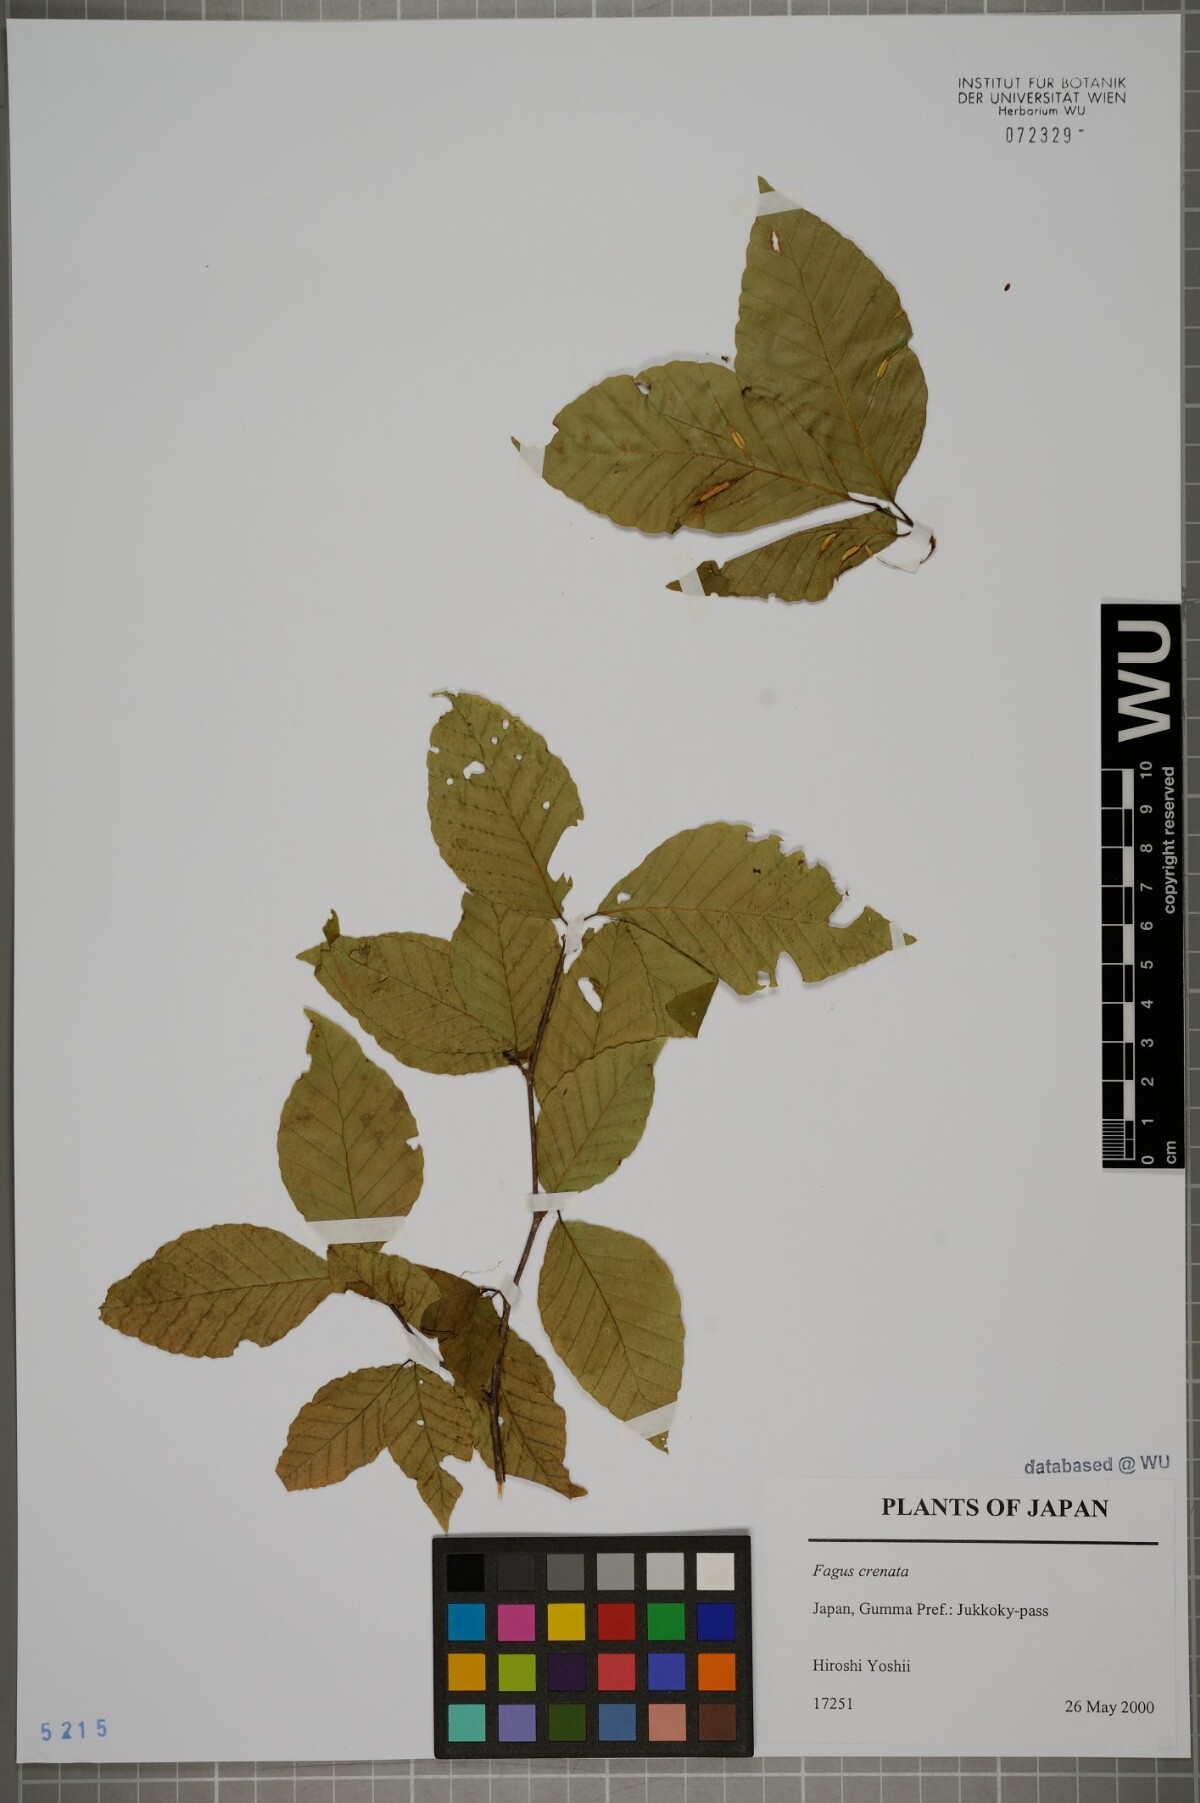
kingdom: Plantae
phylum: Tracheophyta
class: Magnoliopsida
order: Fagales
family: Fagaceae
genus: Fagus
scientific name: Fagus crenata
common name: Japanese beech
